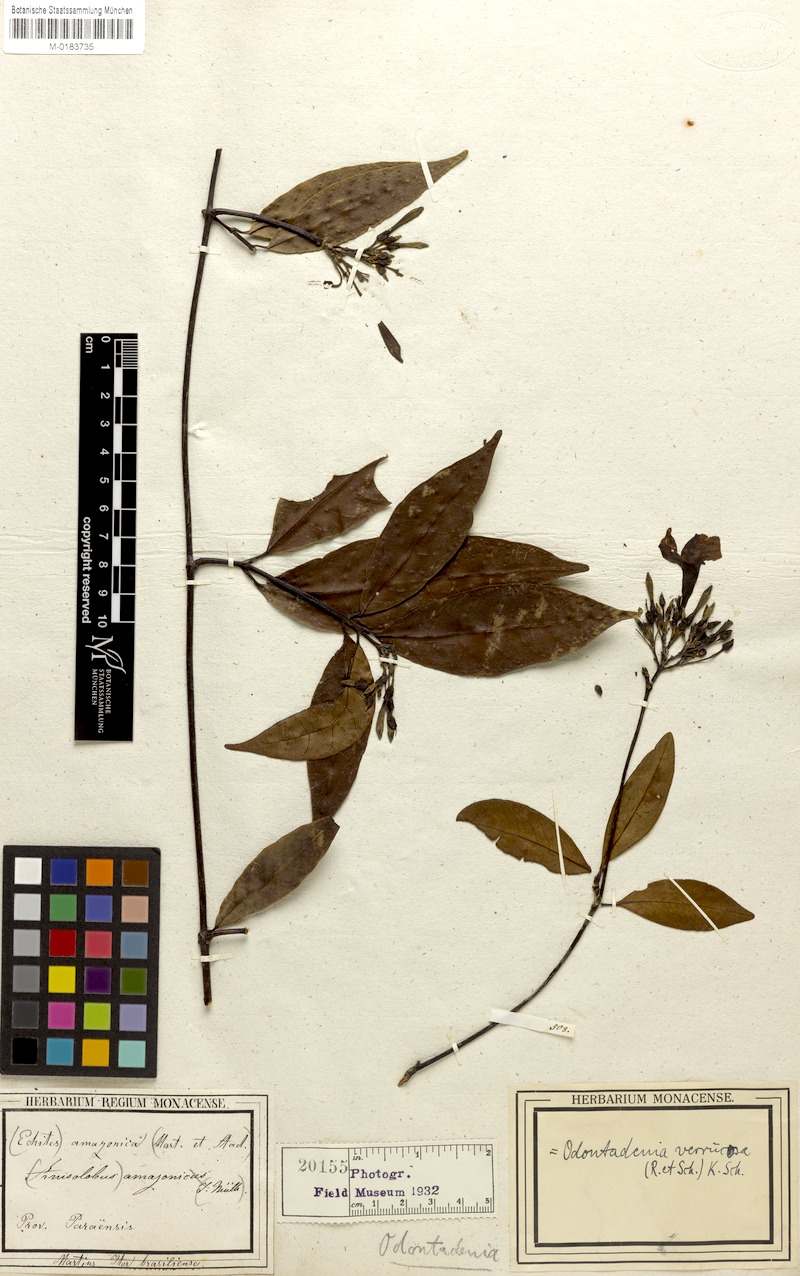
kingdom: Plantae
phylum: Tracheophyta
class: Magnoliopsida
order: Gentianales
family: Apocynaceae
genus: Odontadenia
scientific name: Odontadenia verrucosa
